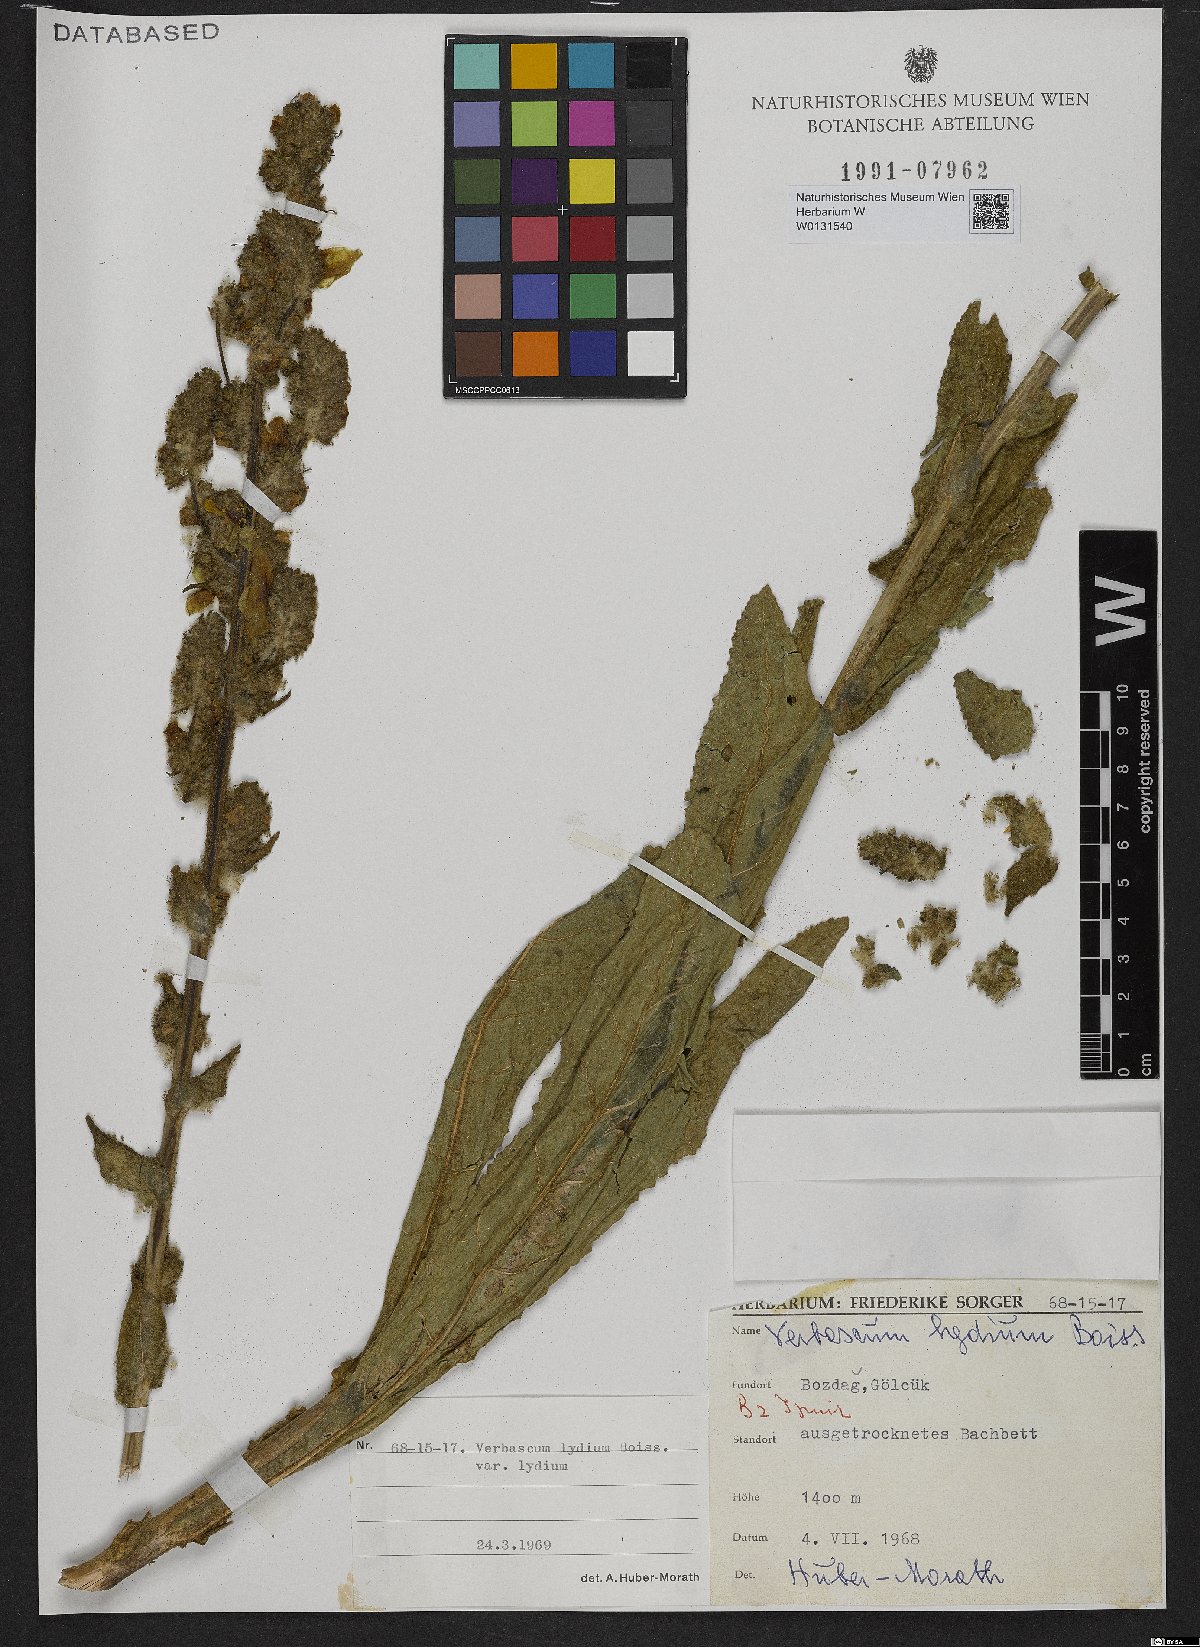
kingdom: Plantae
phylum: Tracheophyta
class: Magnoliopsida
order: Lamiales
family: Scrophulariaceae
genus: Verbascum
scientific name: Verbascum lydium
